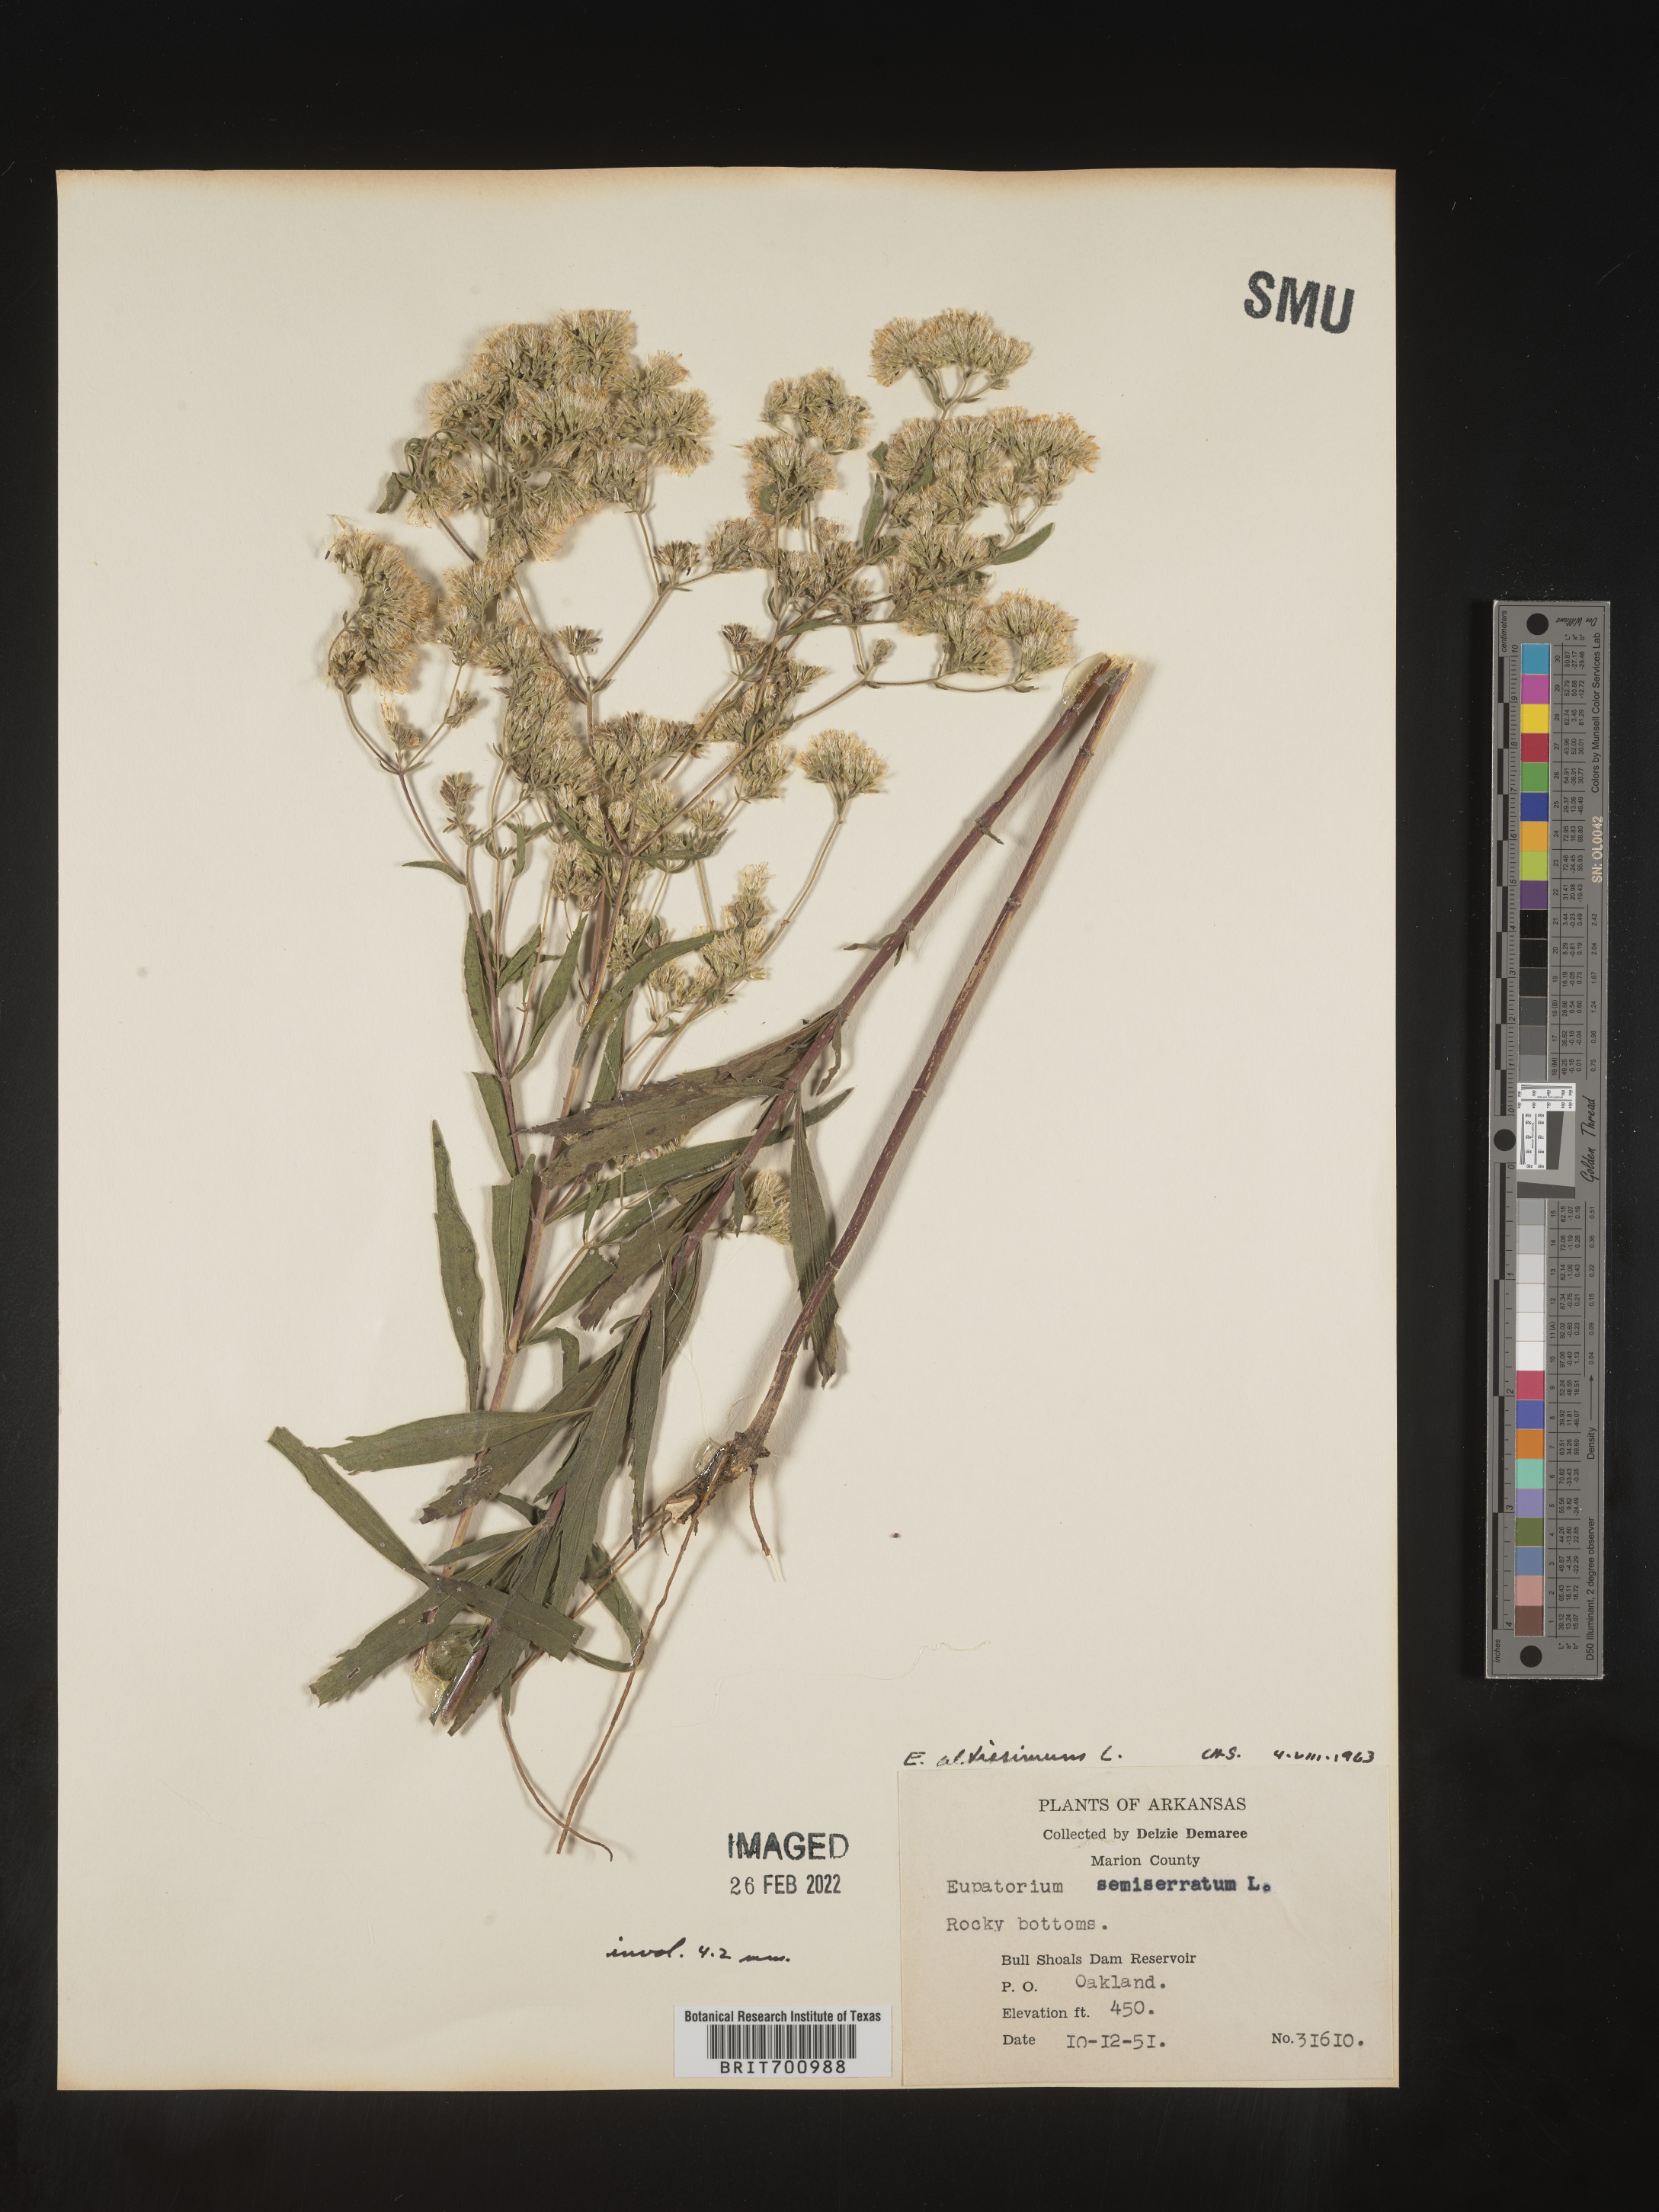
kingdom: Plantae
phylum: Tracheophyta
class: Magnoliopsida
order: Asterales
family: Asteraceae
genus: Eupatorium
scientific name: Eupatorium altissimum
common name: Tall thoroughwort
